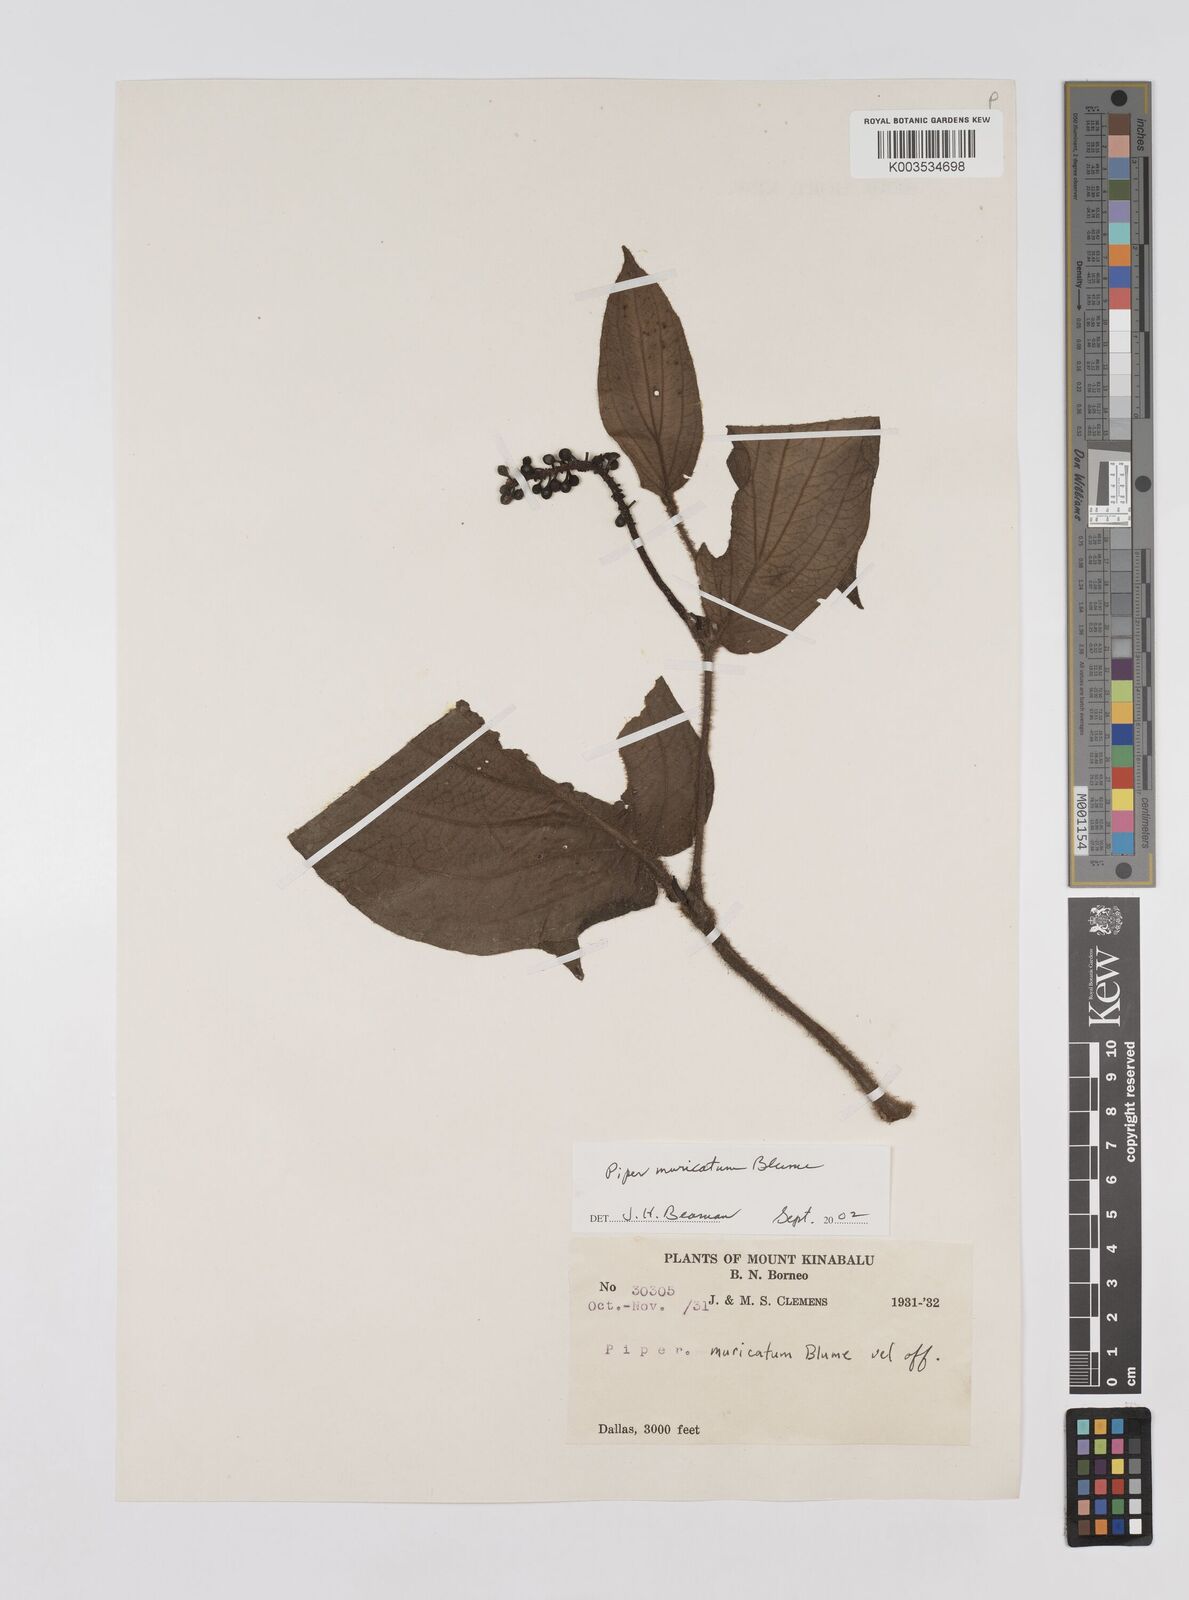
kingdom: Plantae
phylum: Tracheophyta
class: Magnoliopsida
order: Piperales
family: Piperaceae
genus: Piper
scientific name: Piper muricatum
